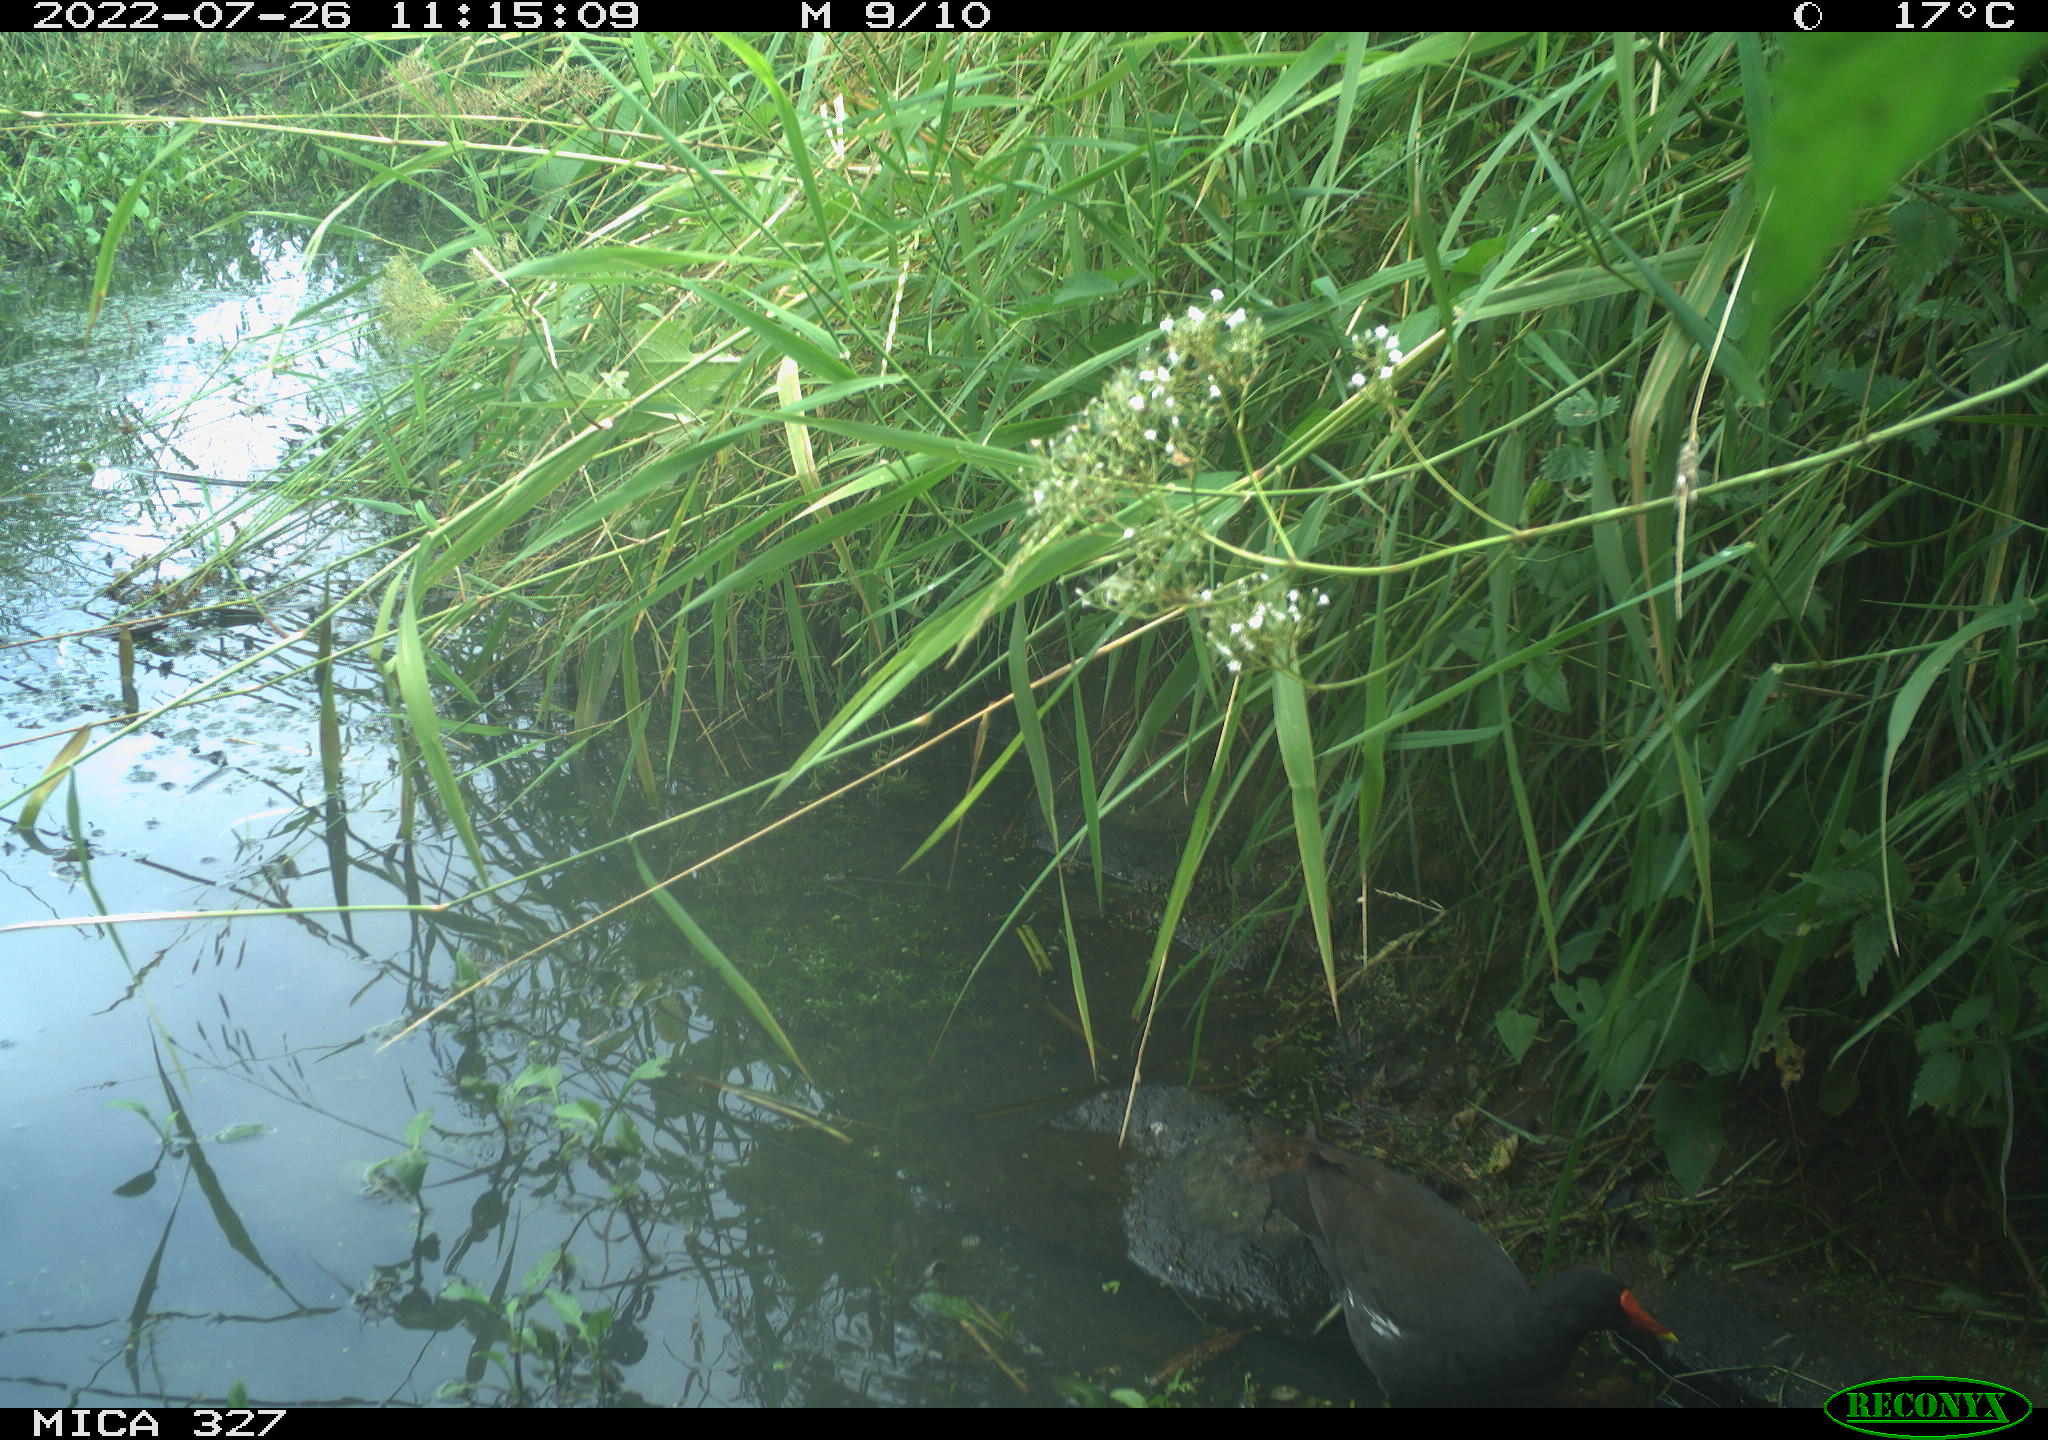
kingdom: Animalia
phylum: Chordata
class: Aves
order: Gruiformes
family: Rallidae
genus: Gallinula
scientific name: Gallinula chloropus
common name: Common moorhen
